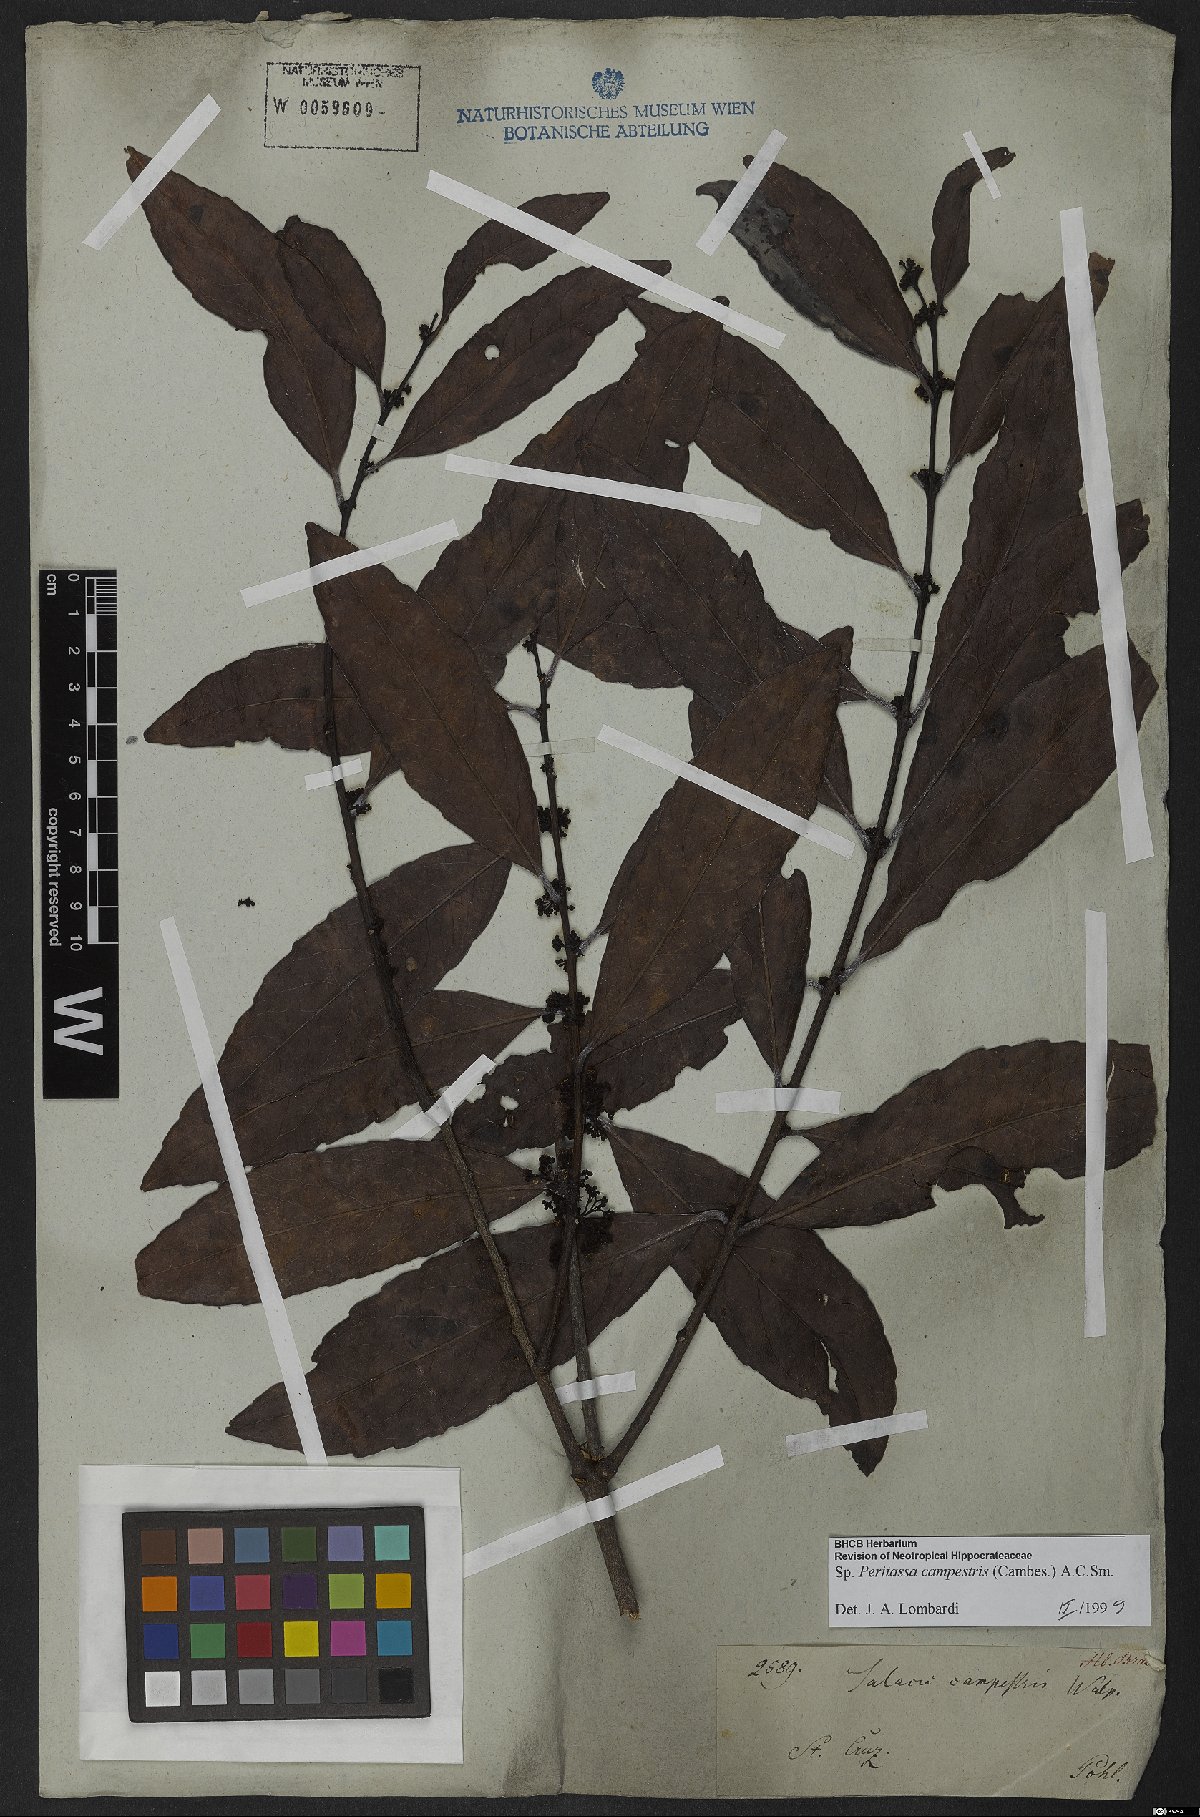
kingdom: Plantae
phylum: Tracheophyta
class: Magnoliopsida
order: Celastrales
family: Celastraceae
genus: Peritassa
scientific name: Peritassa campestris
